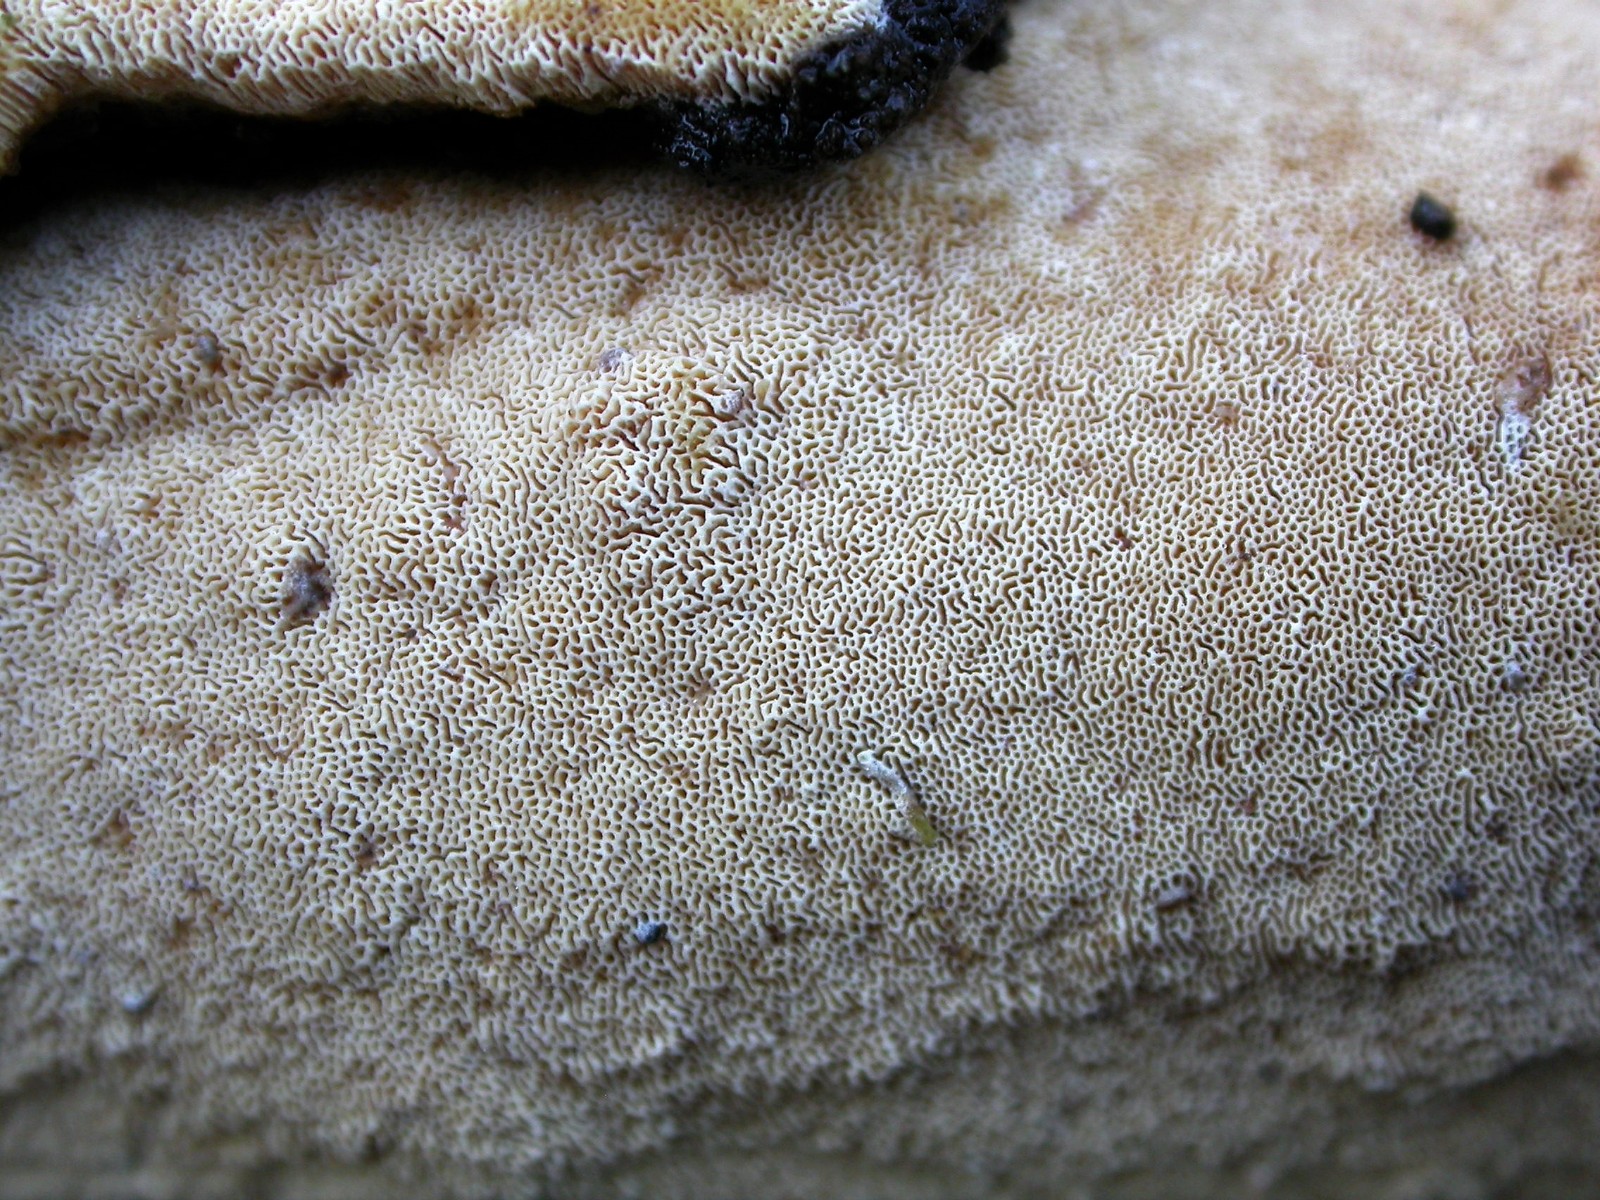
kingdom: Fungi
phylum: Basidiomycota
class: Agaricomycetes
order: Hymenochaetales
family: Schizoporaceae
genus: Xylodon
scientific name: Xylodon subtropicus
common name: labyrint-tandsvamp
